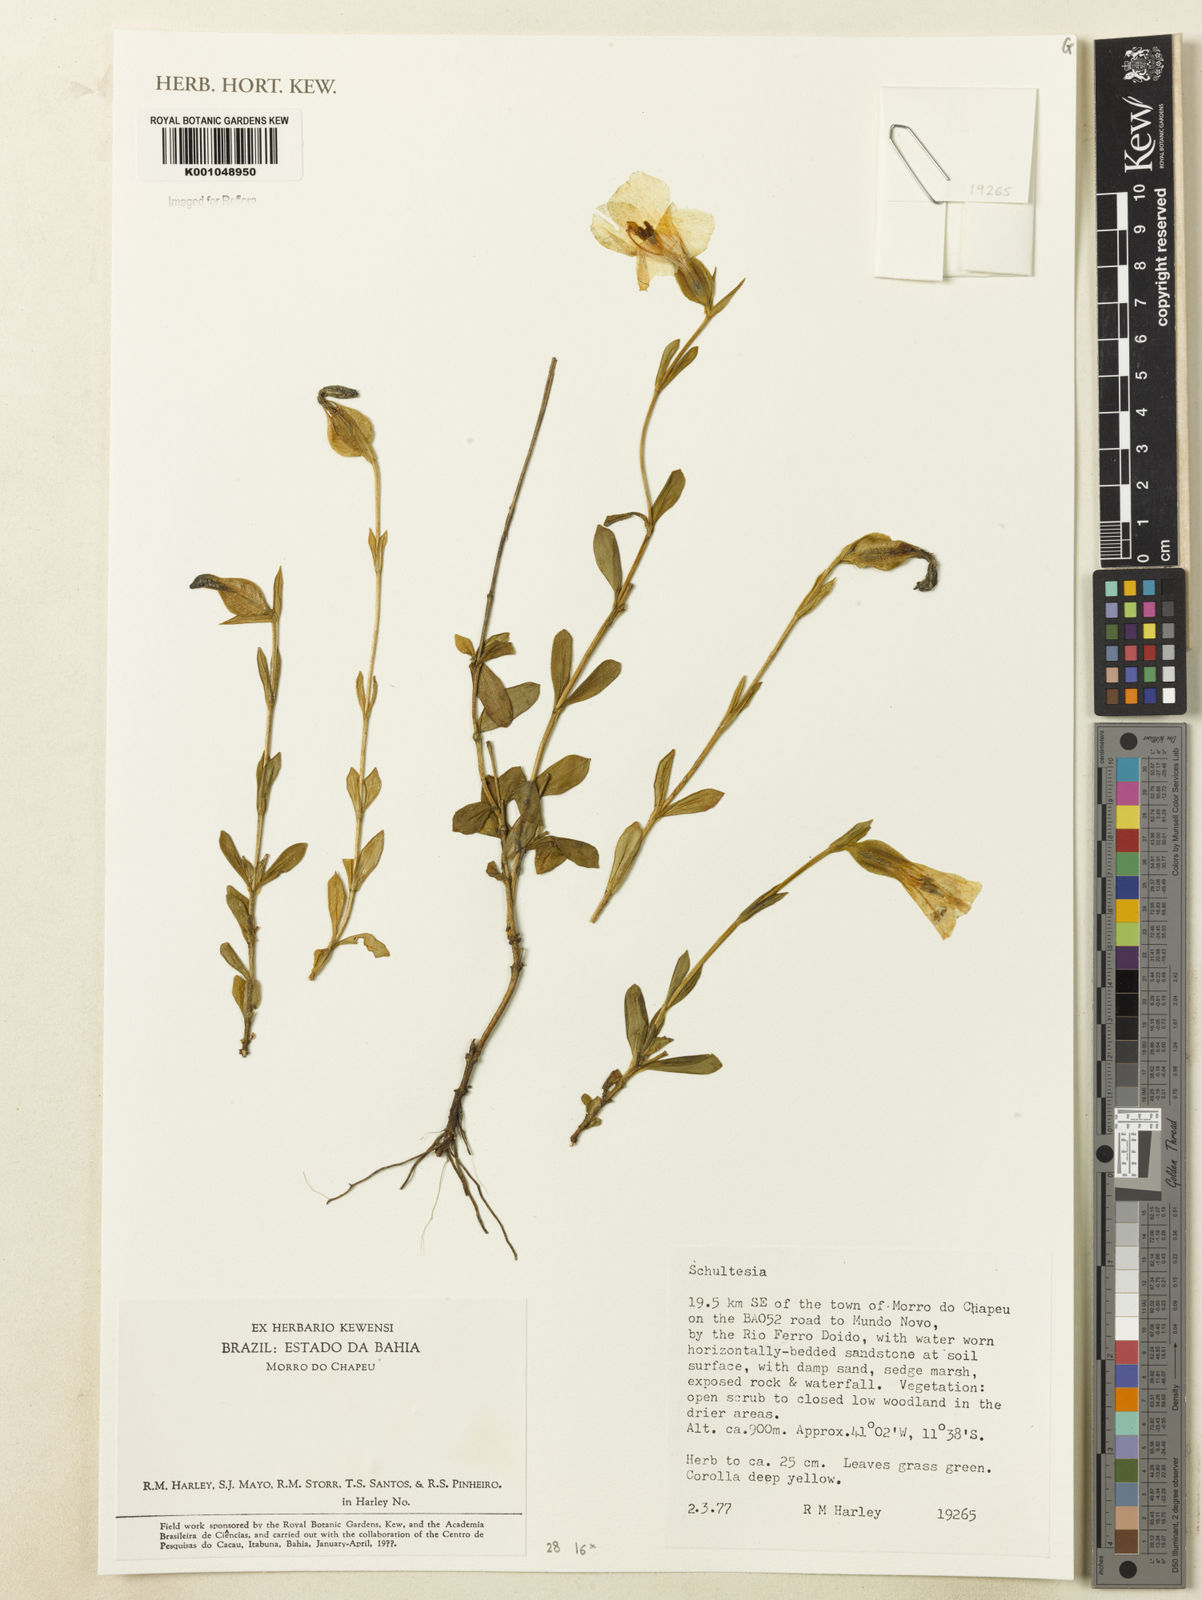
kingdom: Plantae
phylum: Tracheophyta
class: Magnoliopsida
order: Gentianales
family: Gentianaceae
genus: Schultesia
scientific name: Schultesia
